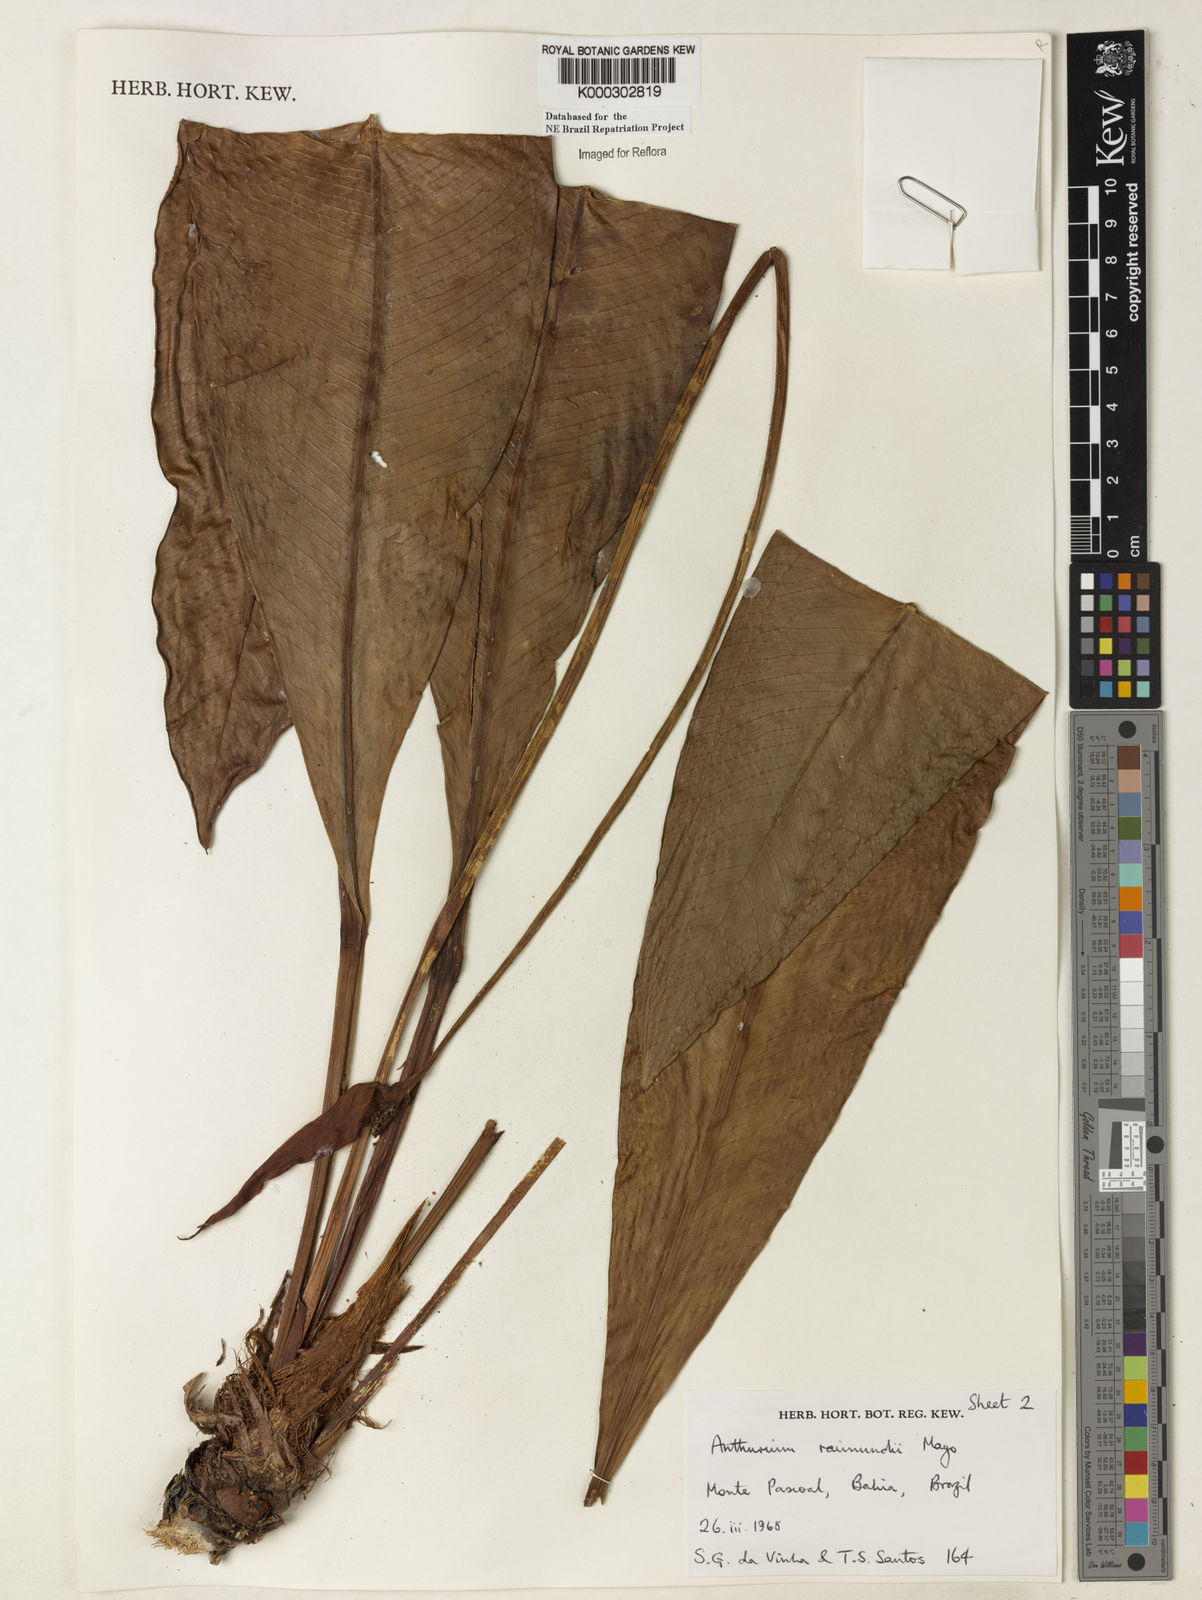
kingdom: Plantae
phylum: Tracheophyta
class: Liliopsida
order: Alismatales
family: Araceae
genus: Anthurium
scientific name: Anthurium raimundii
